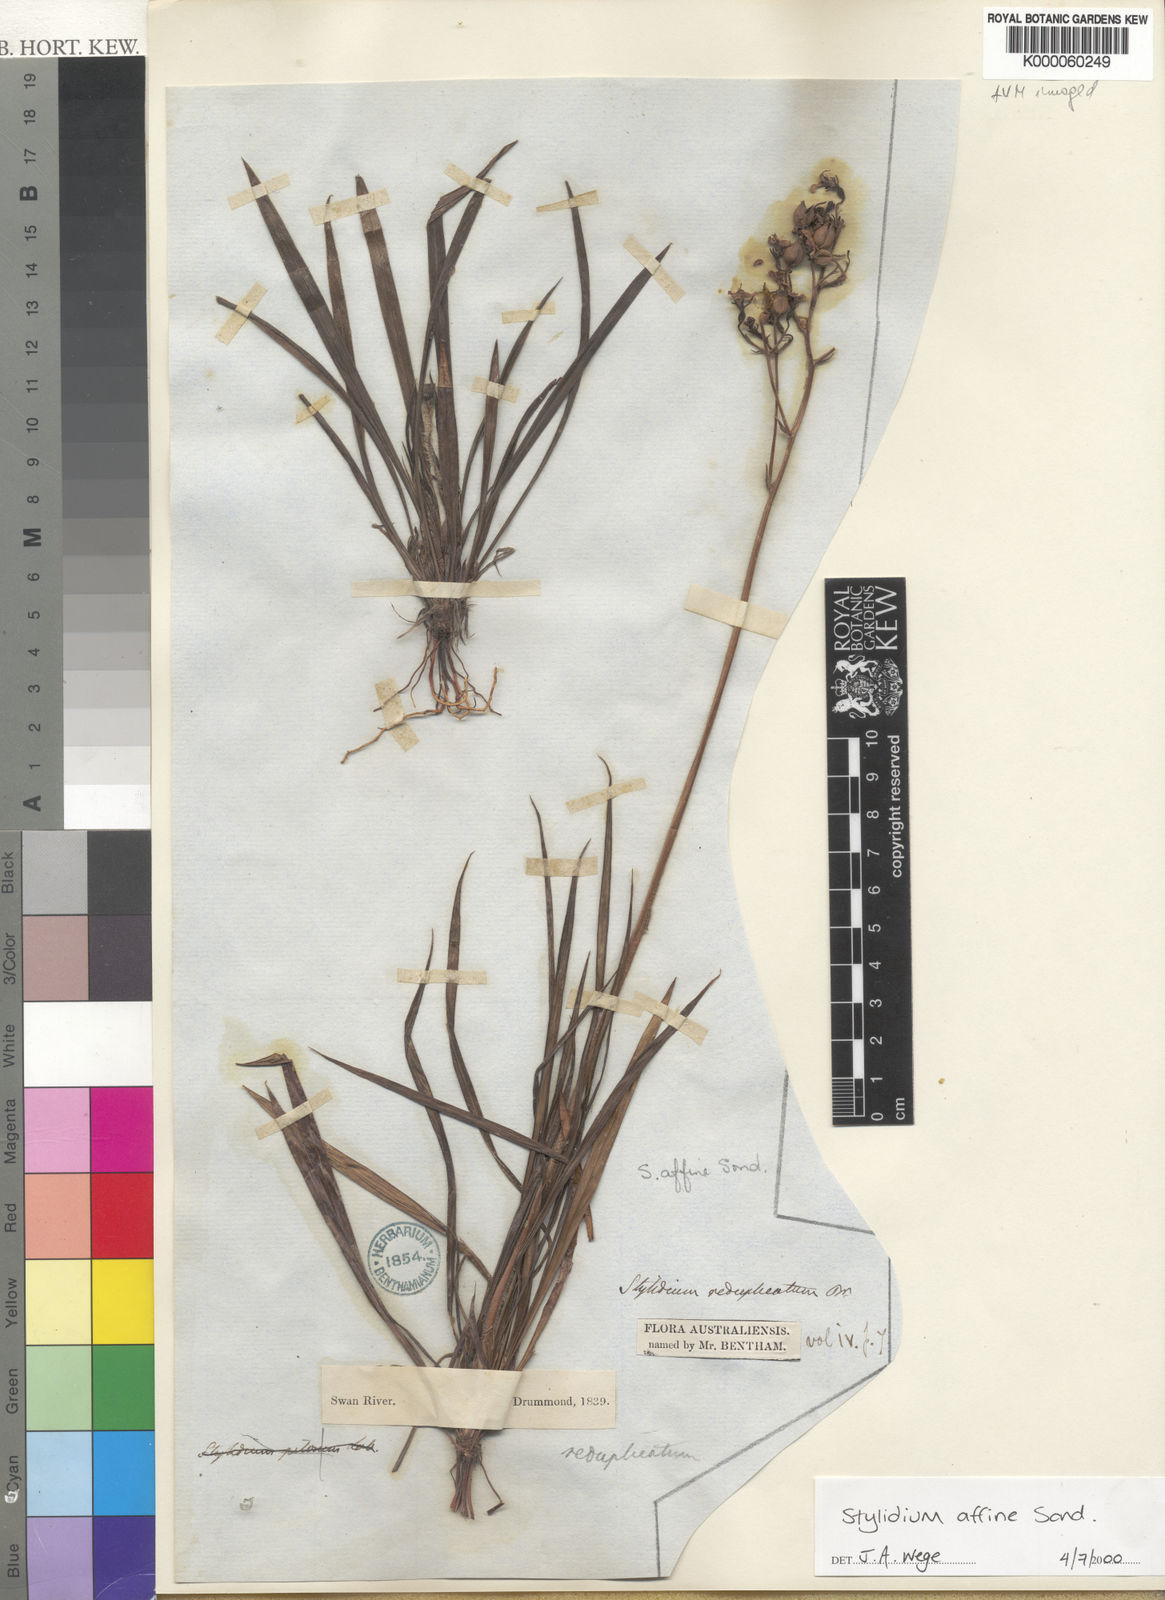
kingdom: Plantae
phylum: Tracheophyta
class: Magnoliopsida
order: Asterales
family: Stylidiaceae
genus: Stylidium
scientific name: Stylidium affine
